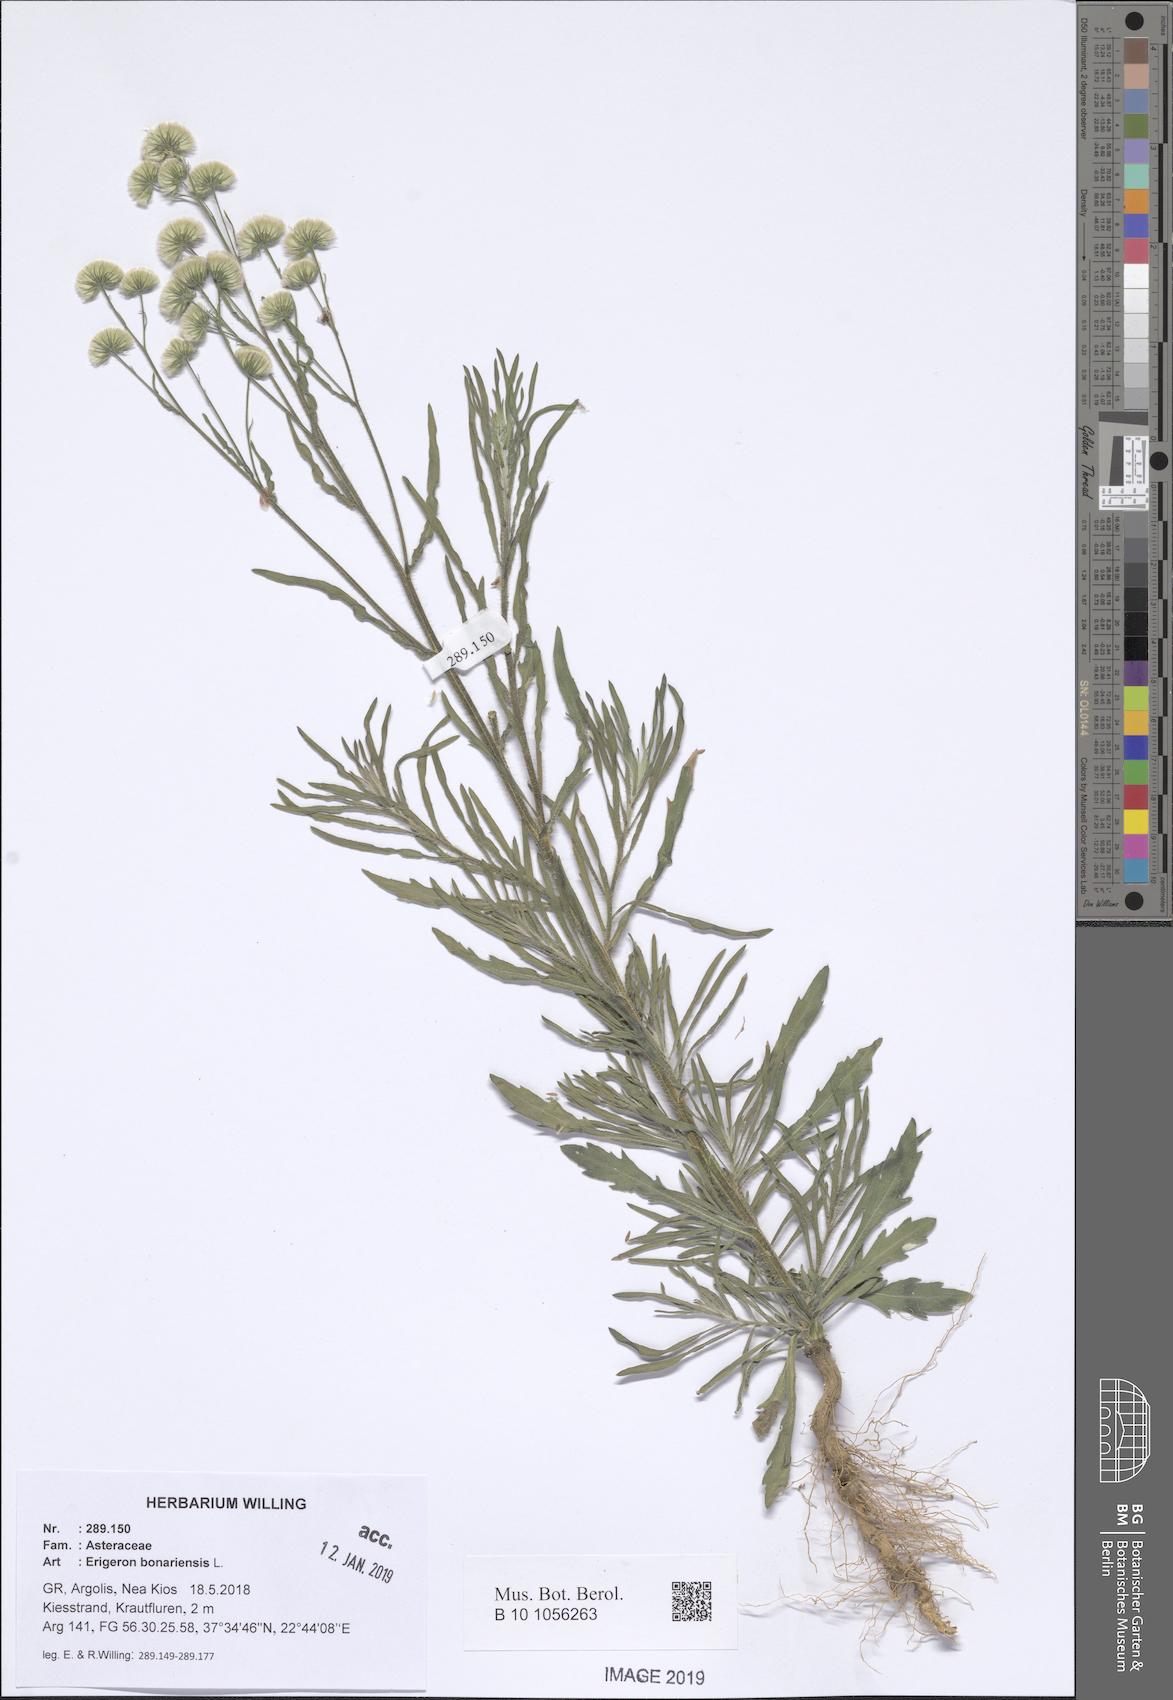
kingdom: Plantae
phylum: Tracheophyta
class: Magnoliopsida
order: Asterales
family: Asteraceae
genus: Erigeron
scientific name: Erigeron bonariensis
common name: Argentine fleabane
